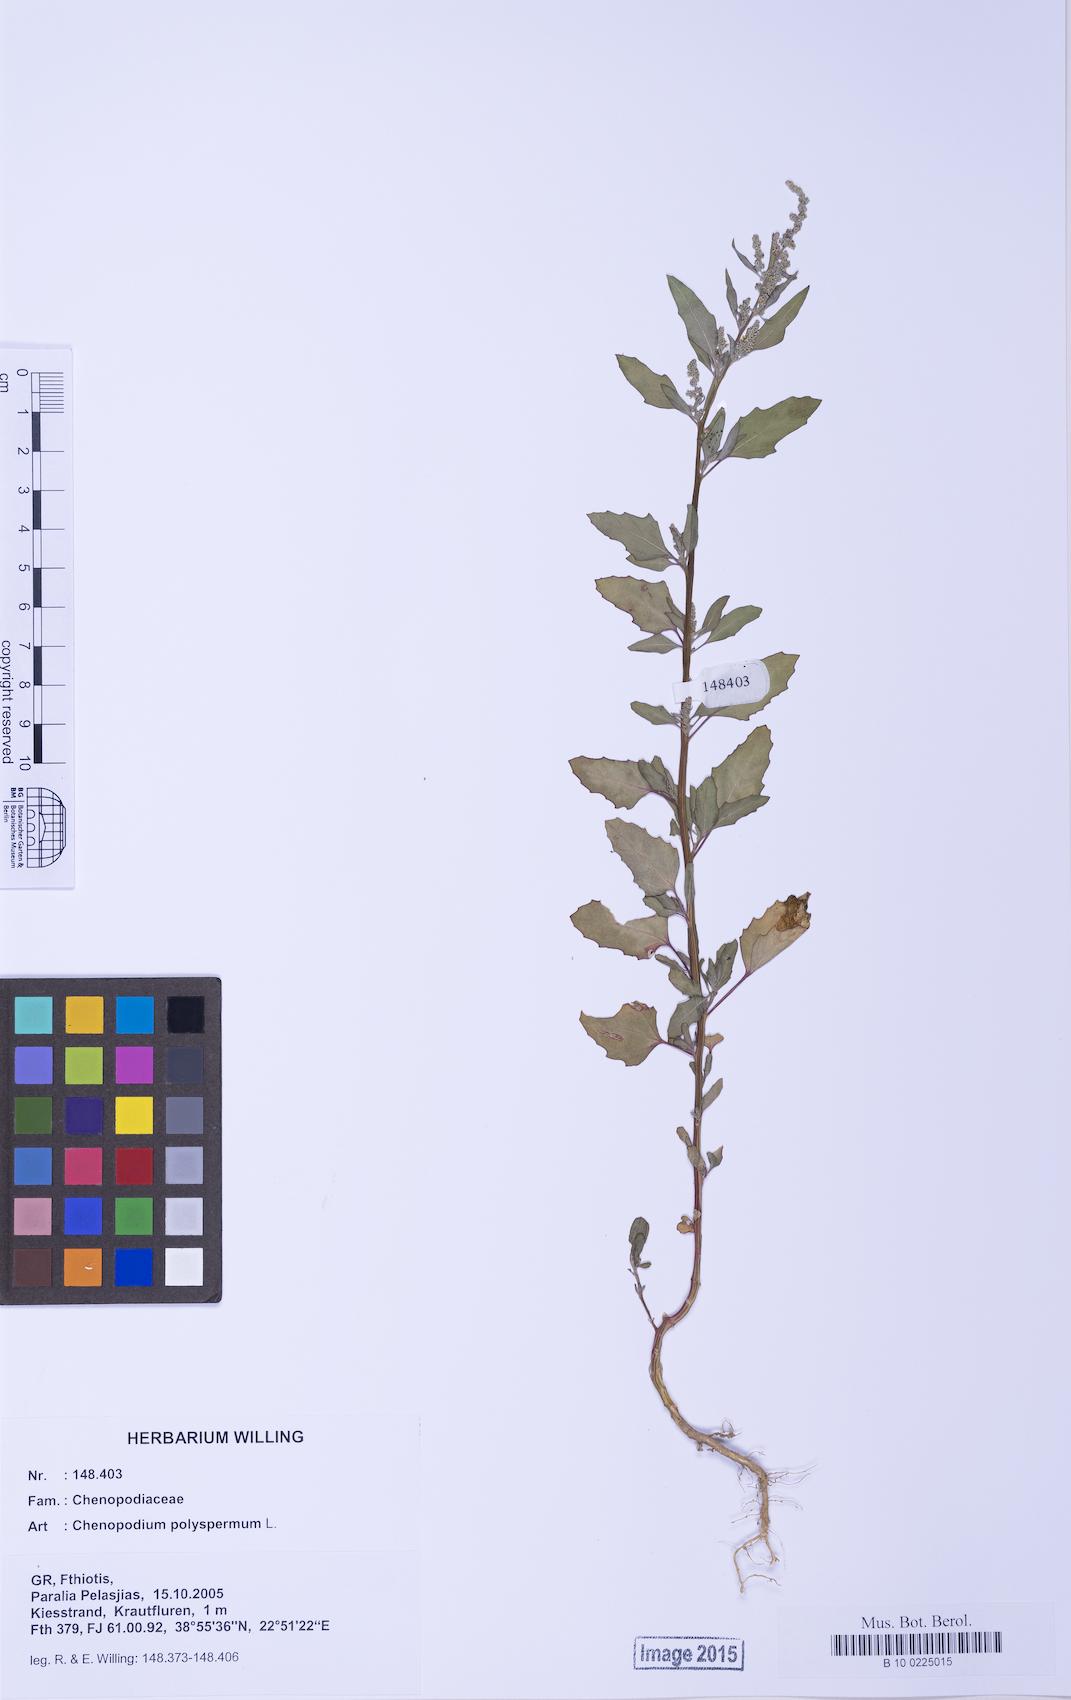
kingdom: Plantae
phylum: Tracheophyta
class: Magnoliopsida
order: Caryophyllales
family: Amaranthaceae
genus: Chenopodium
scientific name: Chenopodium betaceum
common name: Striped goosefoot
